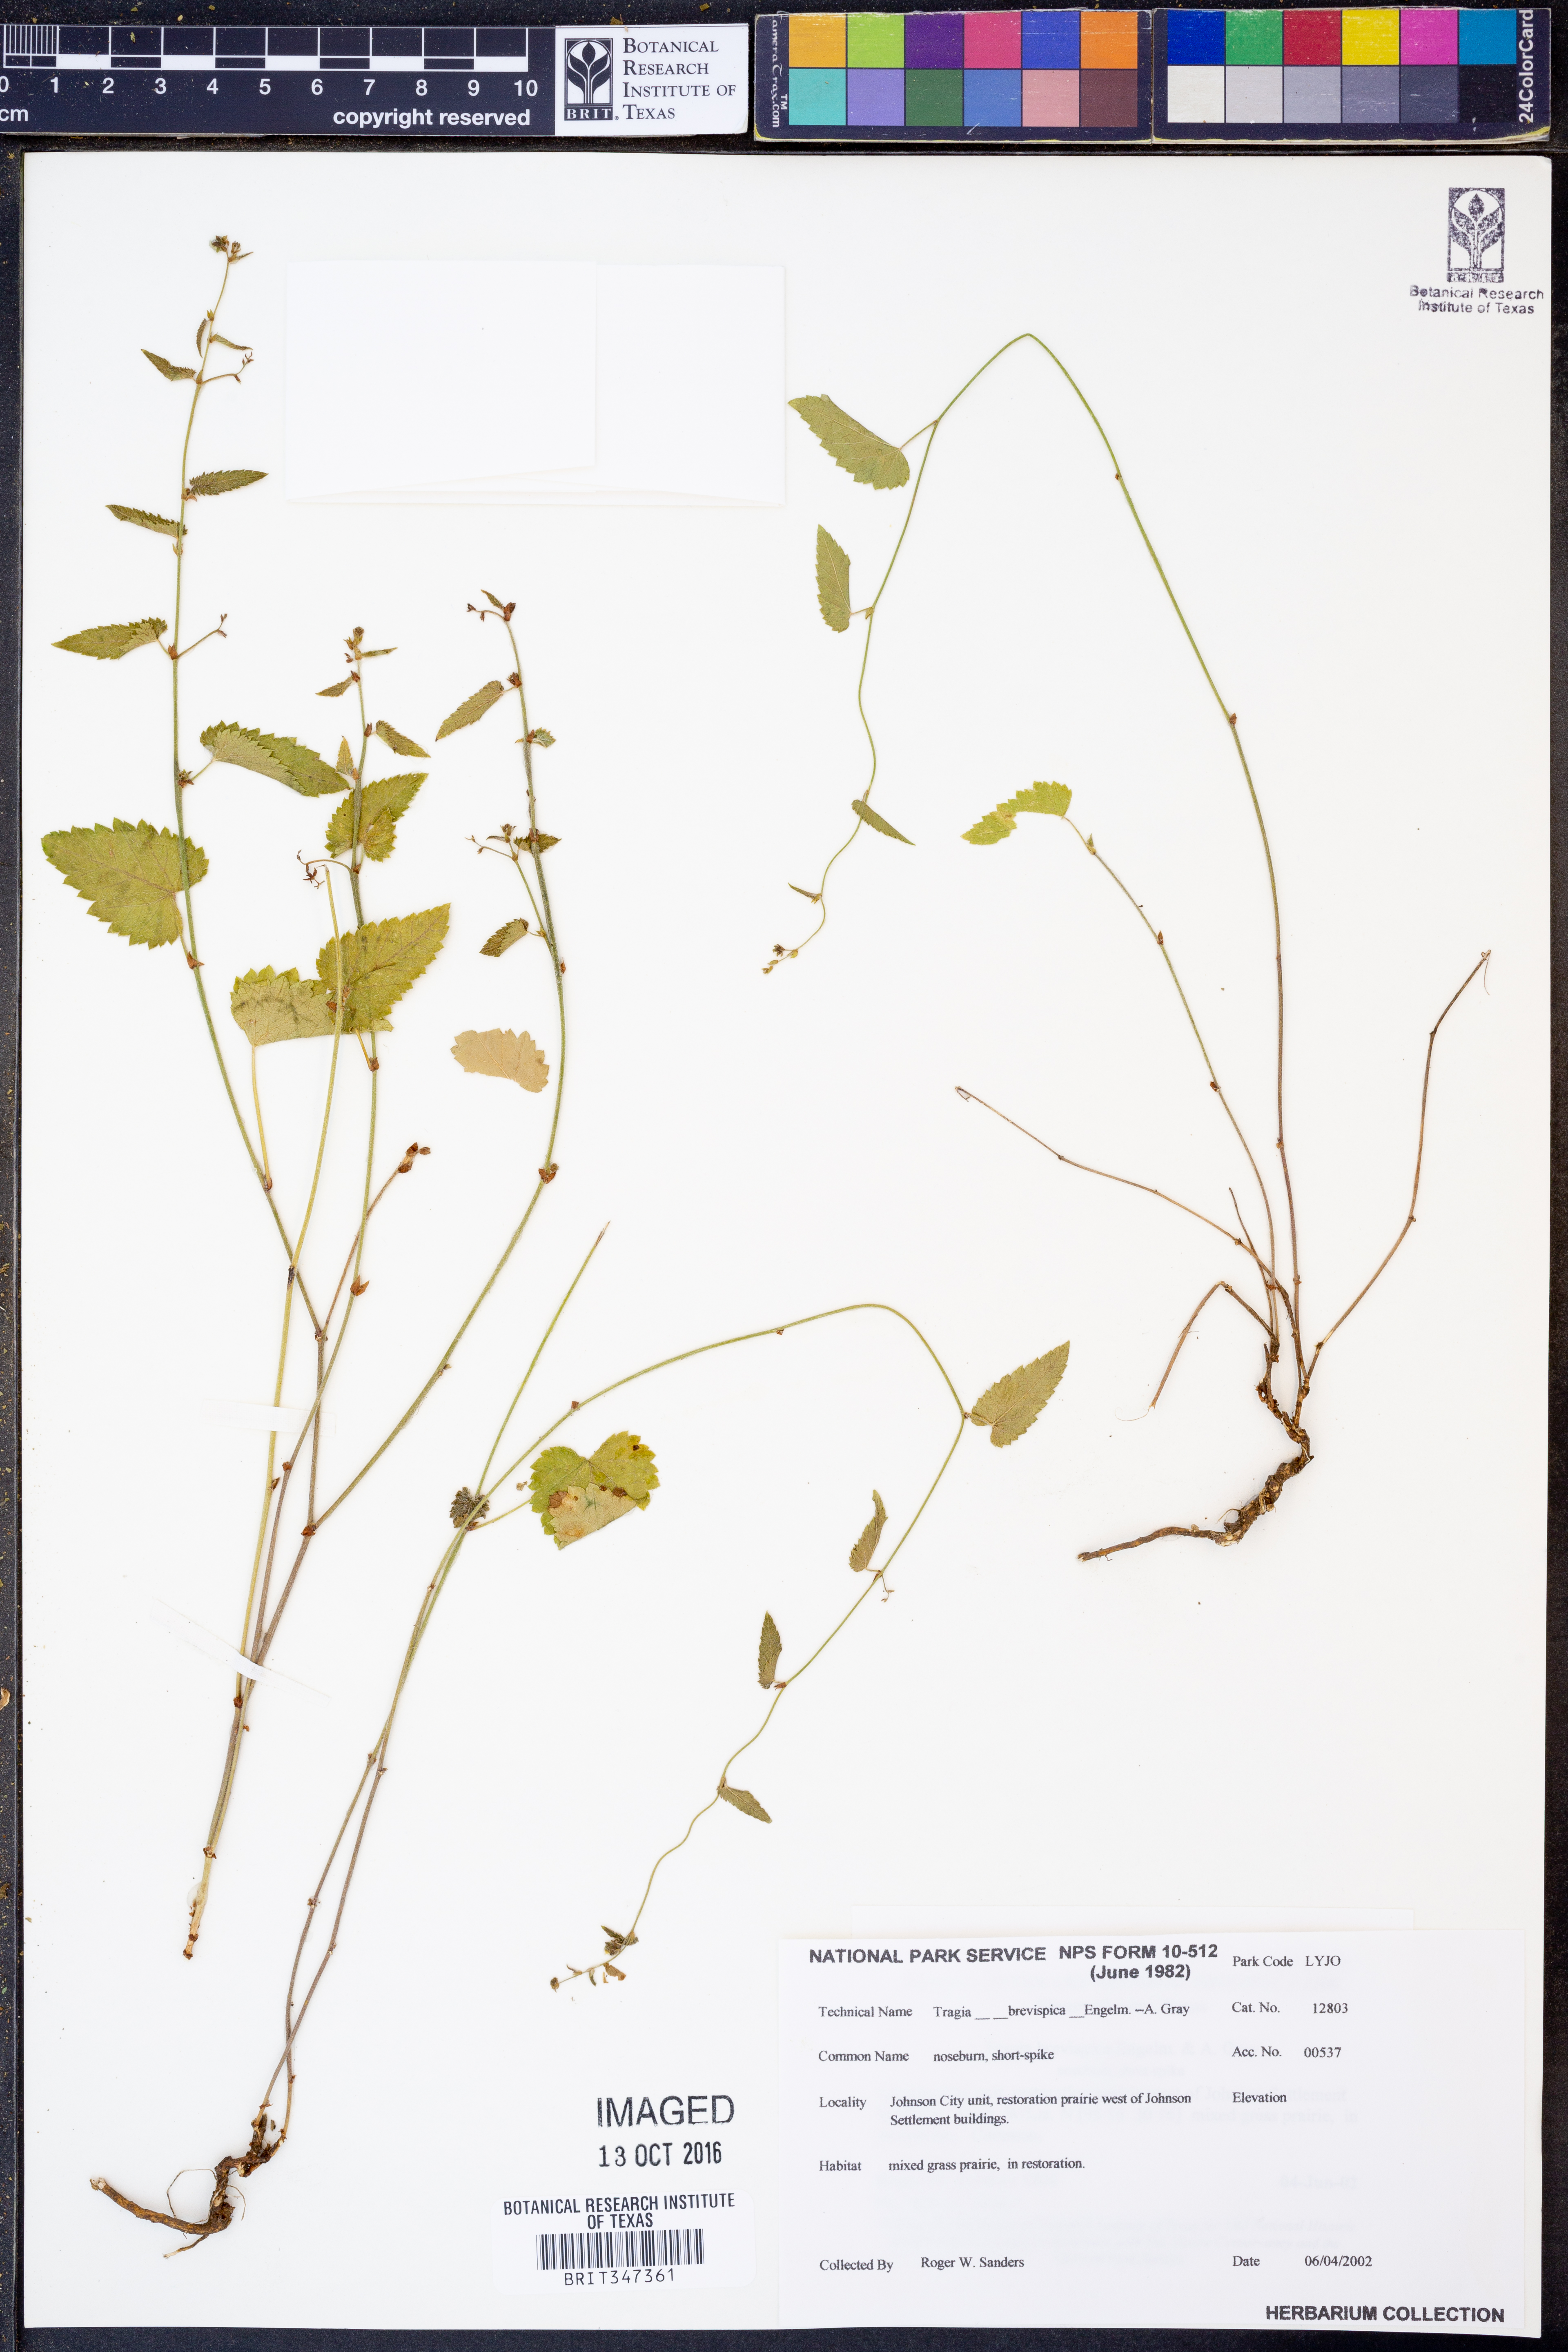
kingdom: Plantae
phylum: Tracheophyta
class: Magnoliopsida
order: Malpighiales
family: Euphorbiaceae
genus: Tragia
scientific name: Tragia brevispica
